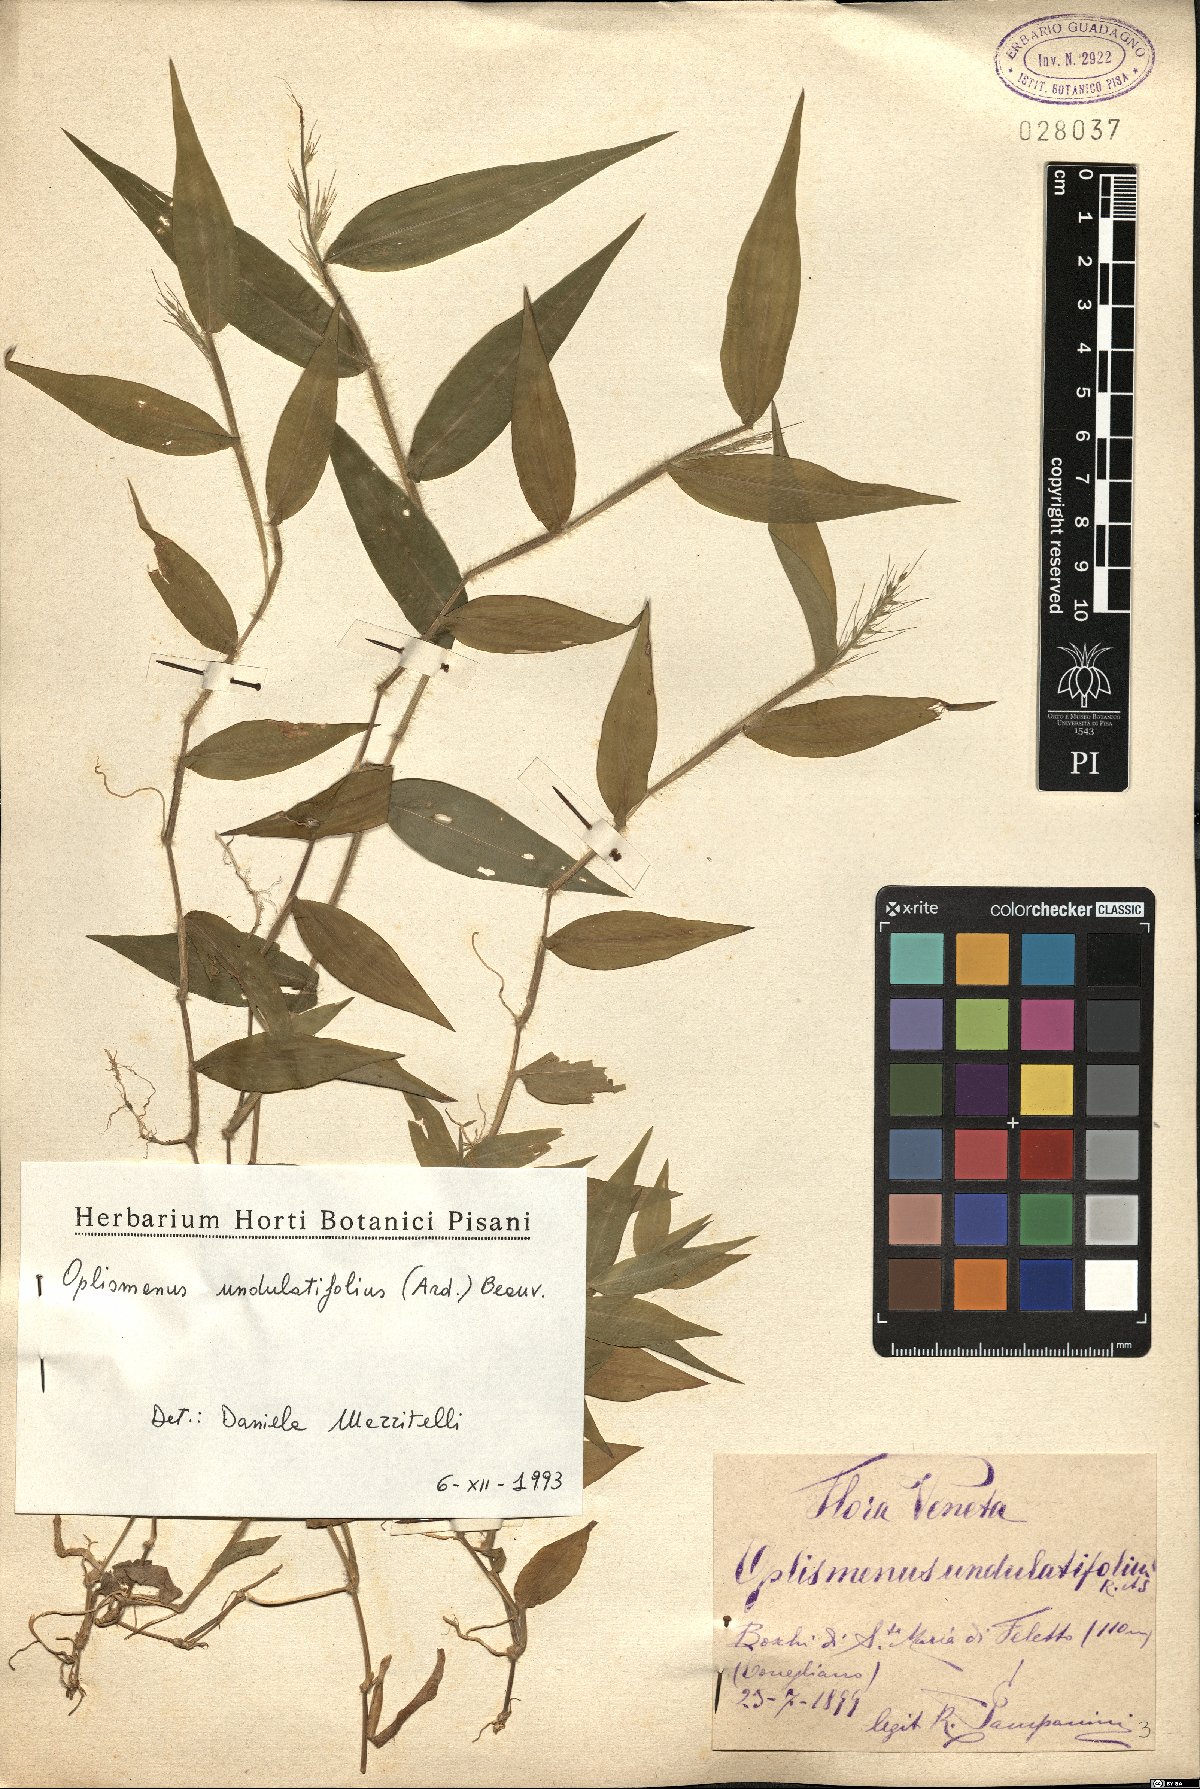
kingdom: Plantae
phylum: Tracheophyta
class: Liliopsida
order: Poales
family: Poaceae
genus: Oplismenus
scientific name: Oplismenus undulatifolius
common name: Wavyleaf basketgrass
